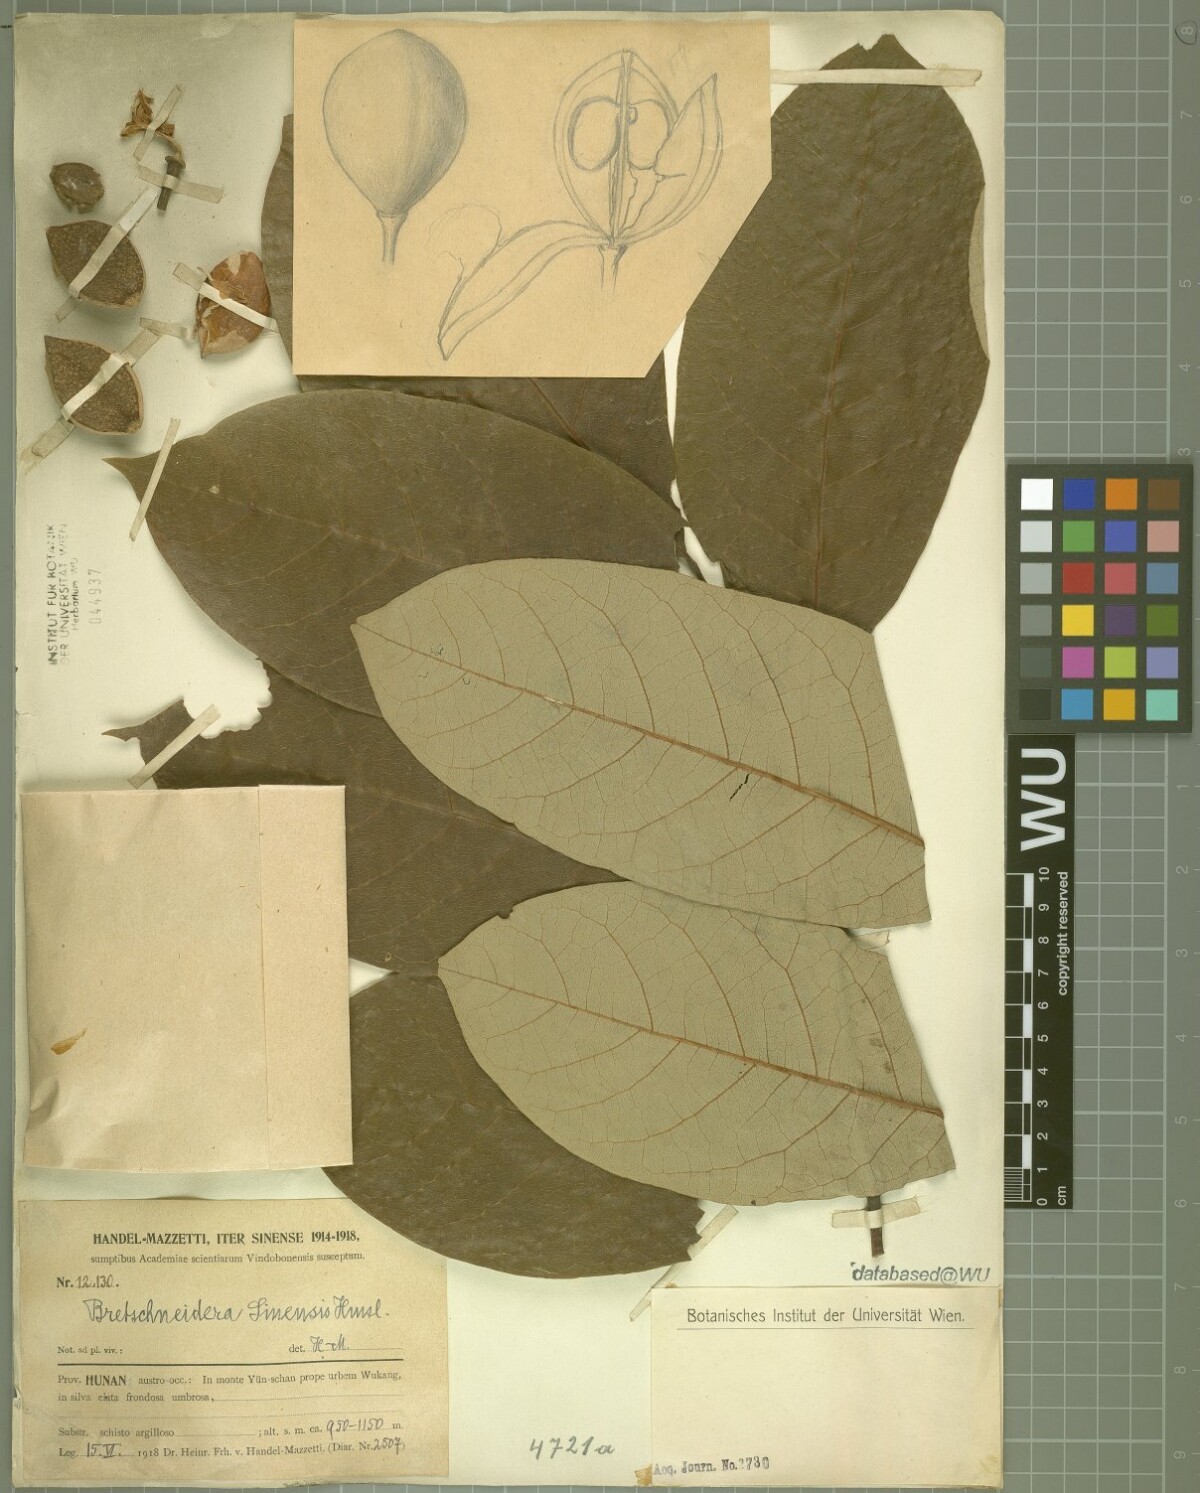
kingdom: Plantae
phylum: Tracheophyta
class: Magnoliopsida
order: Brassicales
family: Akaniaceae
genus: Bretschneidera
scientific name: Bretschneidera sinensis
